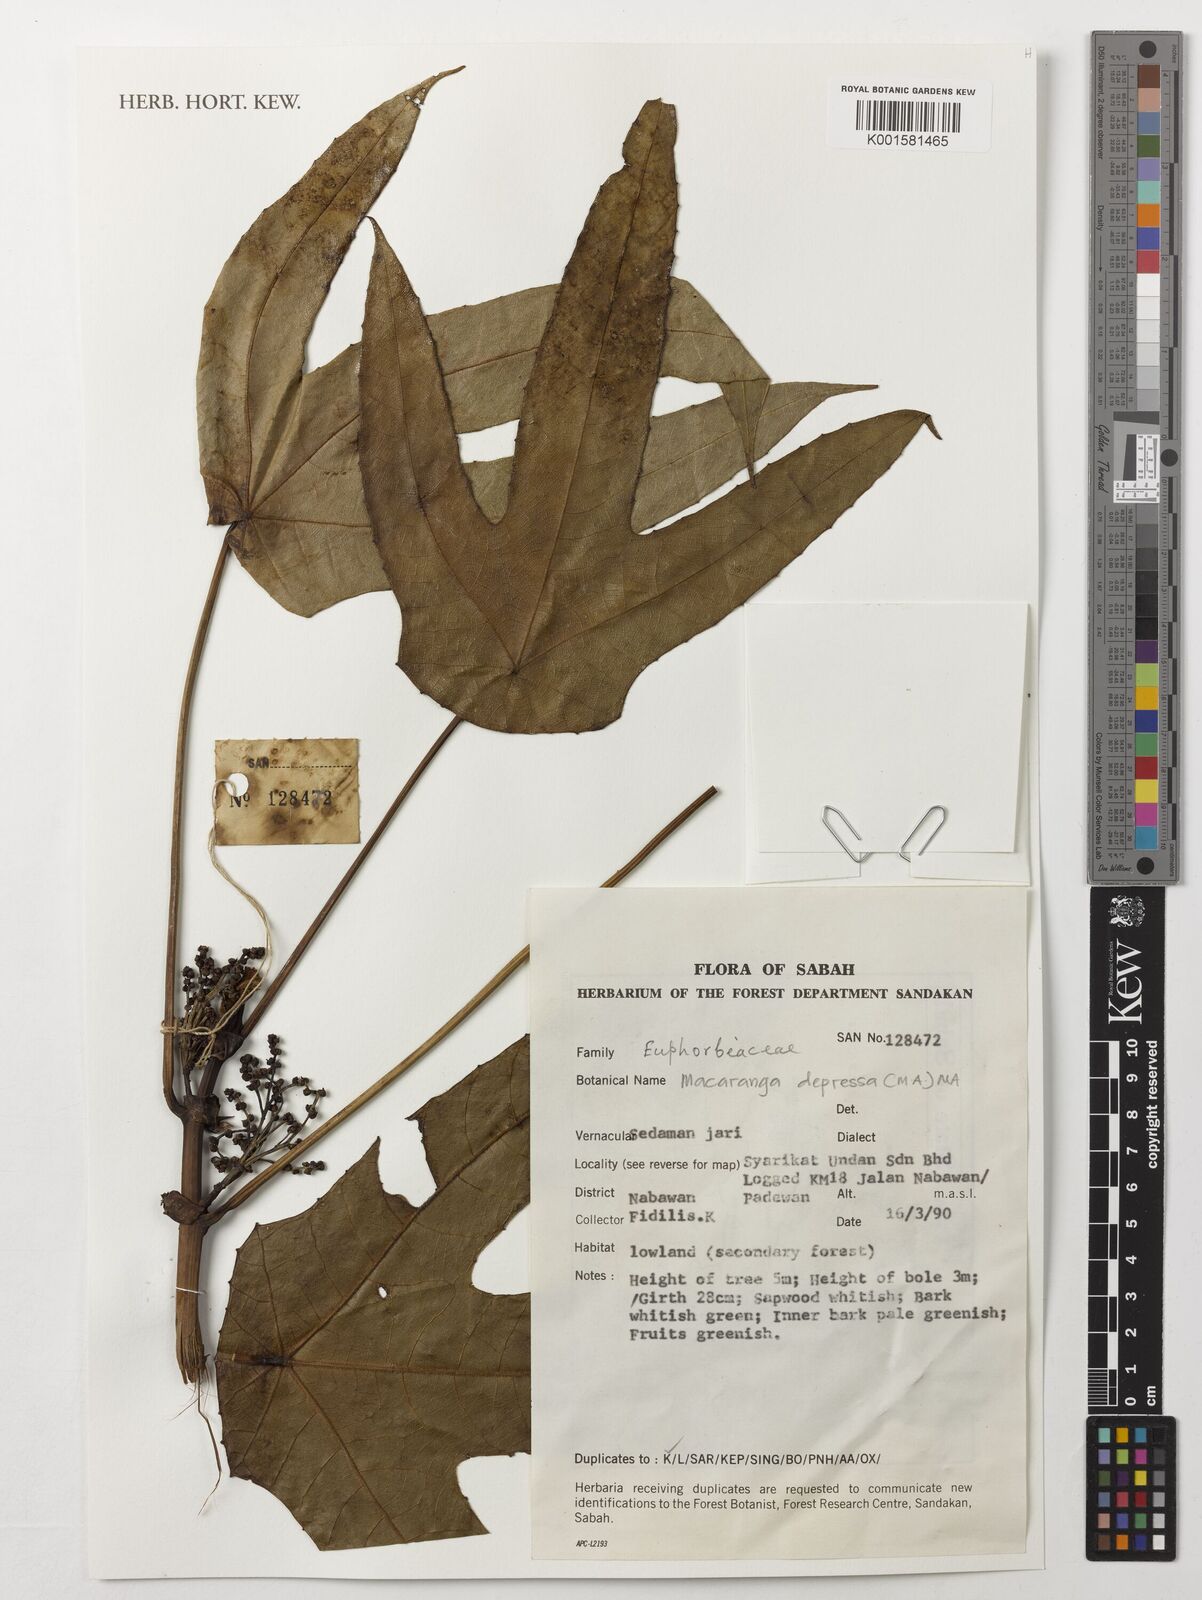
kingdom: Plantae
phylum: Tracheophyta
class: Magnoliopsida
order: Malpighiales
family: Euphorbiaceae
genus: Macaranga
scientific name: Macaranga depressa
